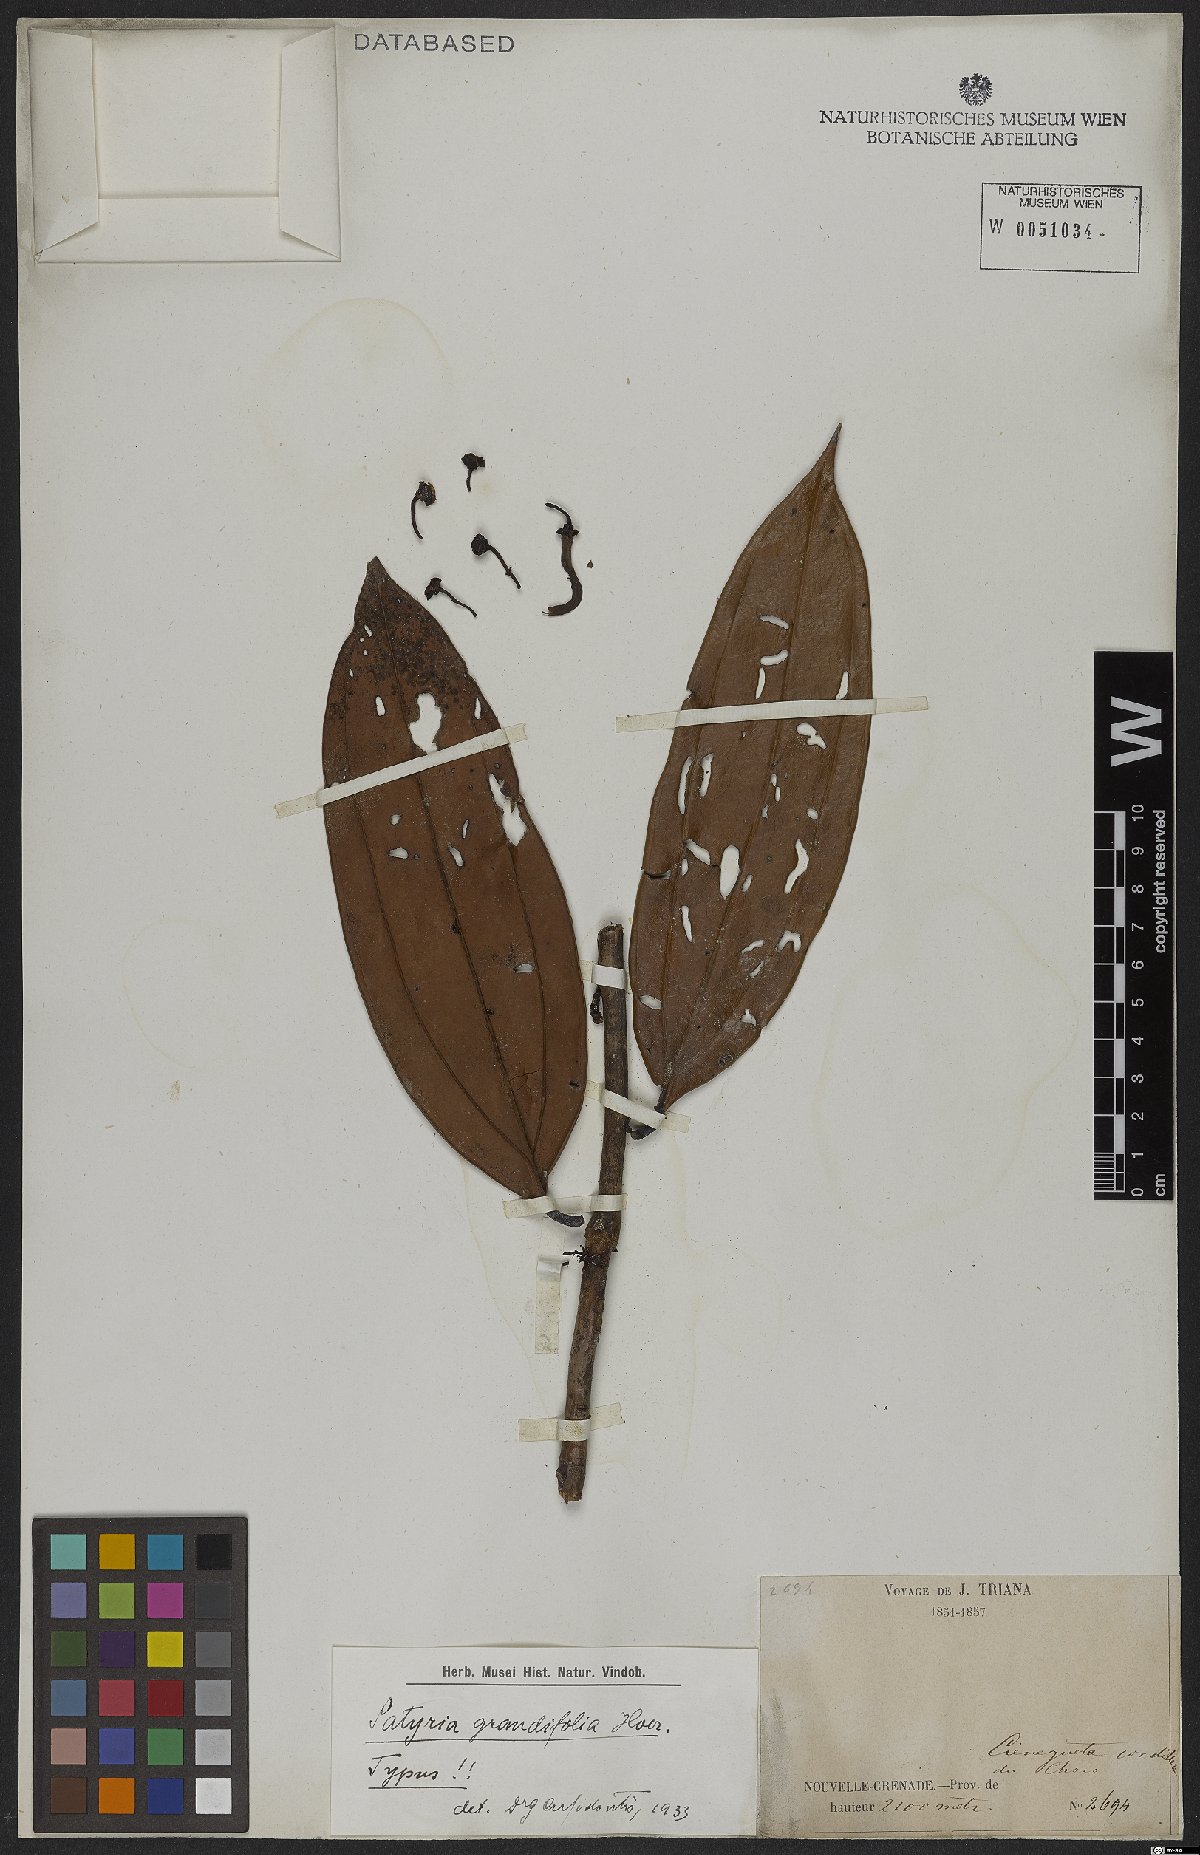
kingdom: Plantae
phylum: Tracheophyta
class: Magnoliopsida
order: Ericales
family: Ericaceae
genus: Satyria
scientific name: Satyria grandifolia
